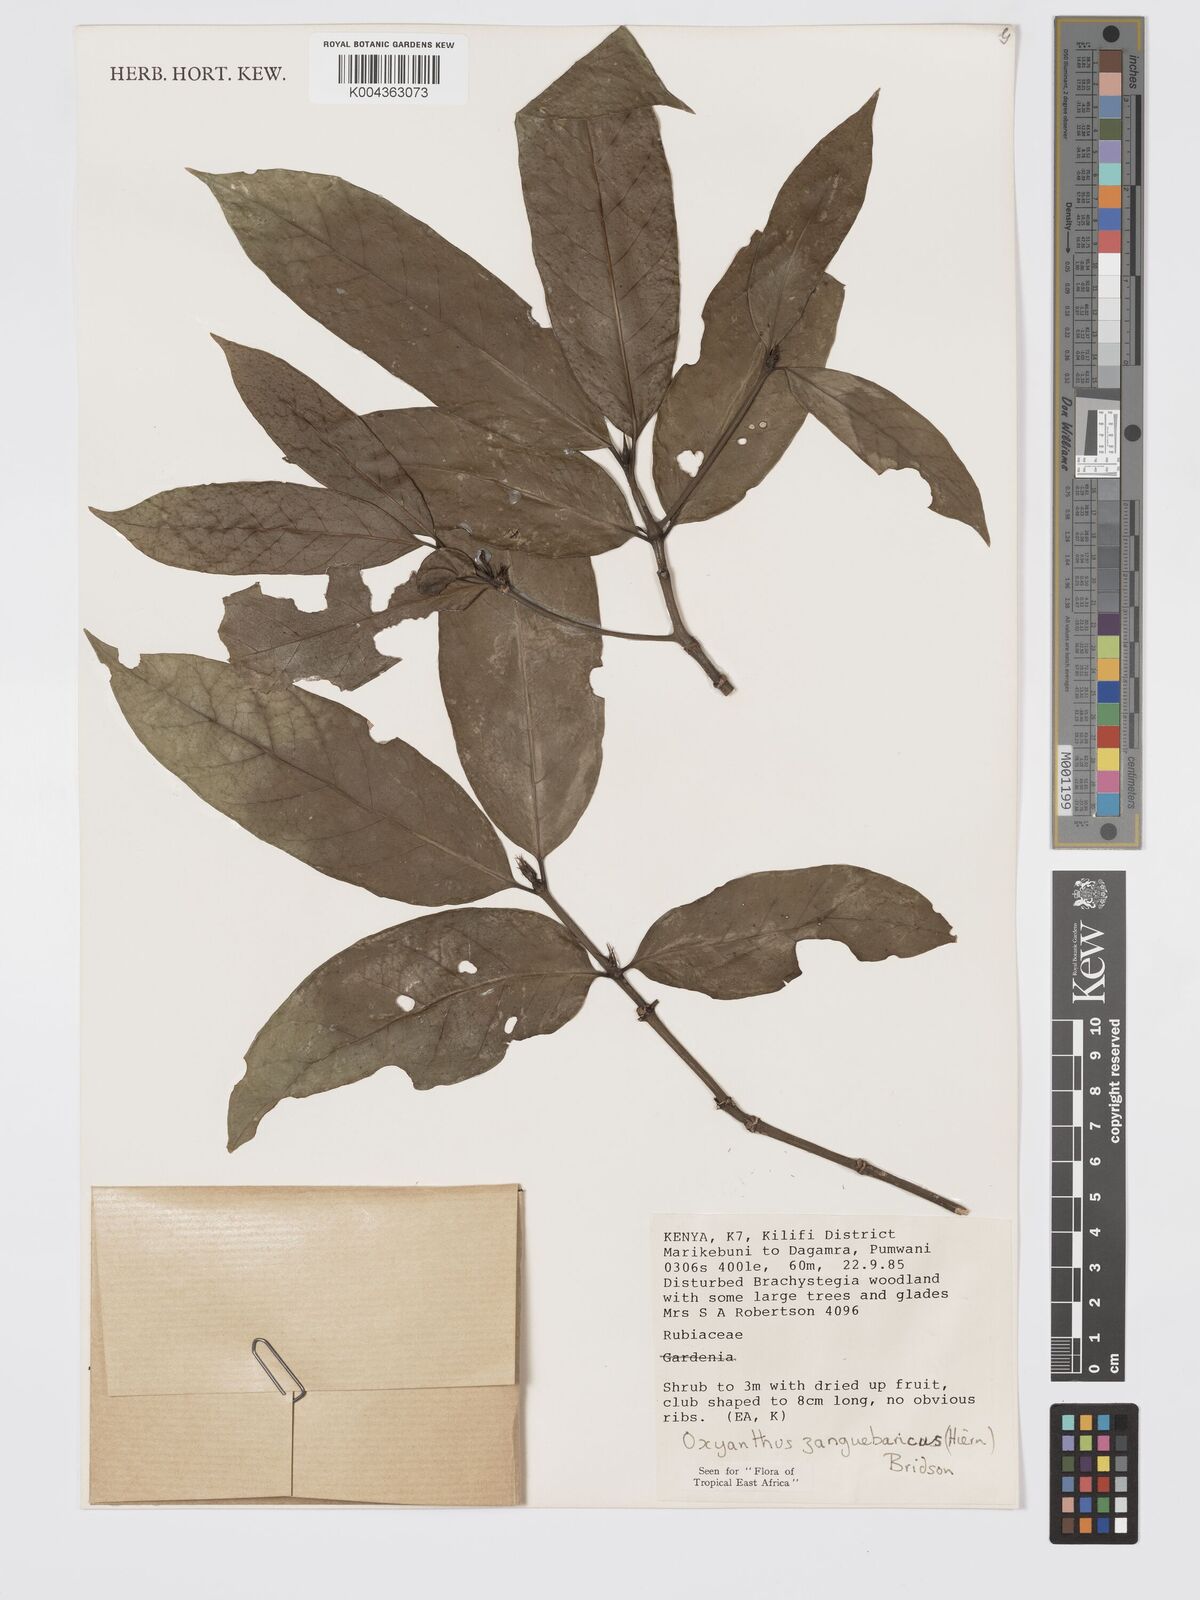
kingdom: Plantae
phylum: Tracheophyta
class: Magnoliopsida
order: Gentianales
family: Rubiaceae
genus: Oxyanthus
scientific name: Oxyanthus zanguebaricus
